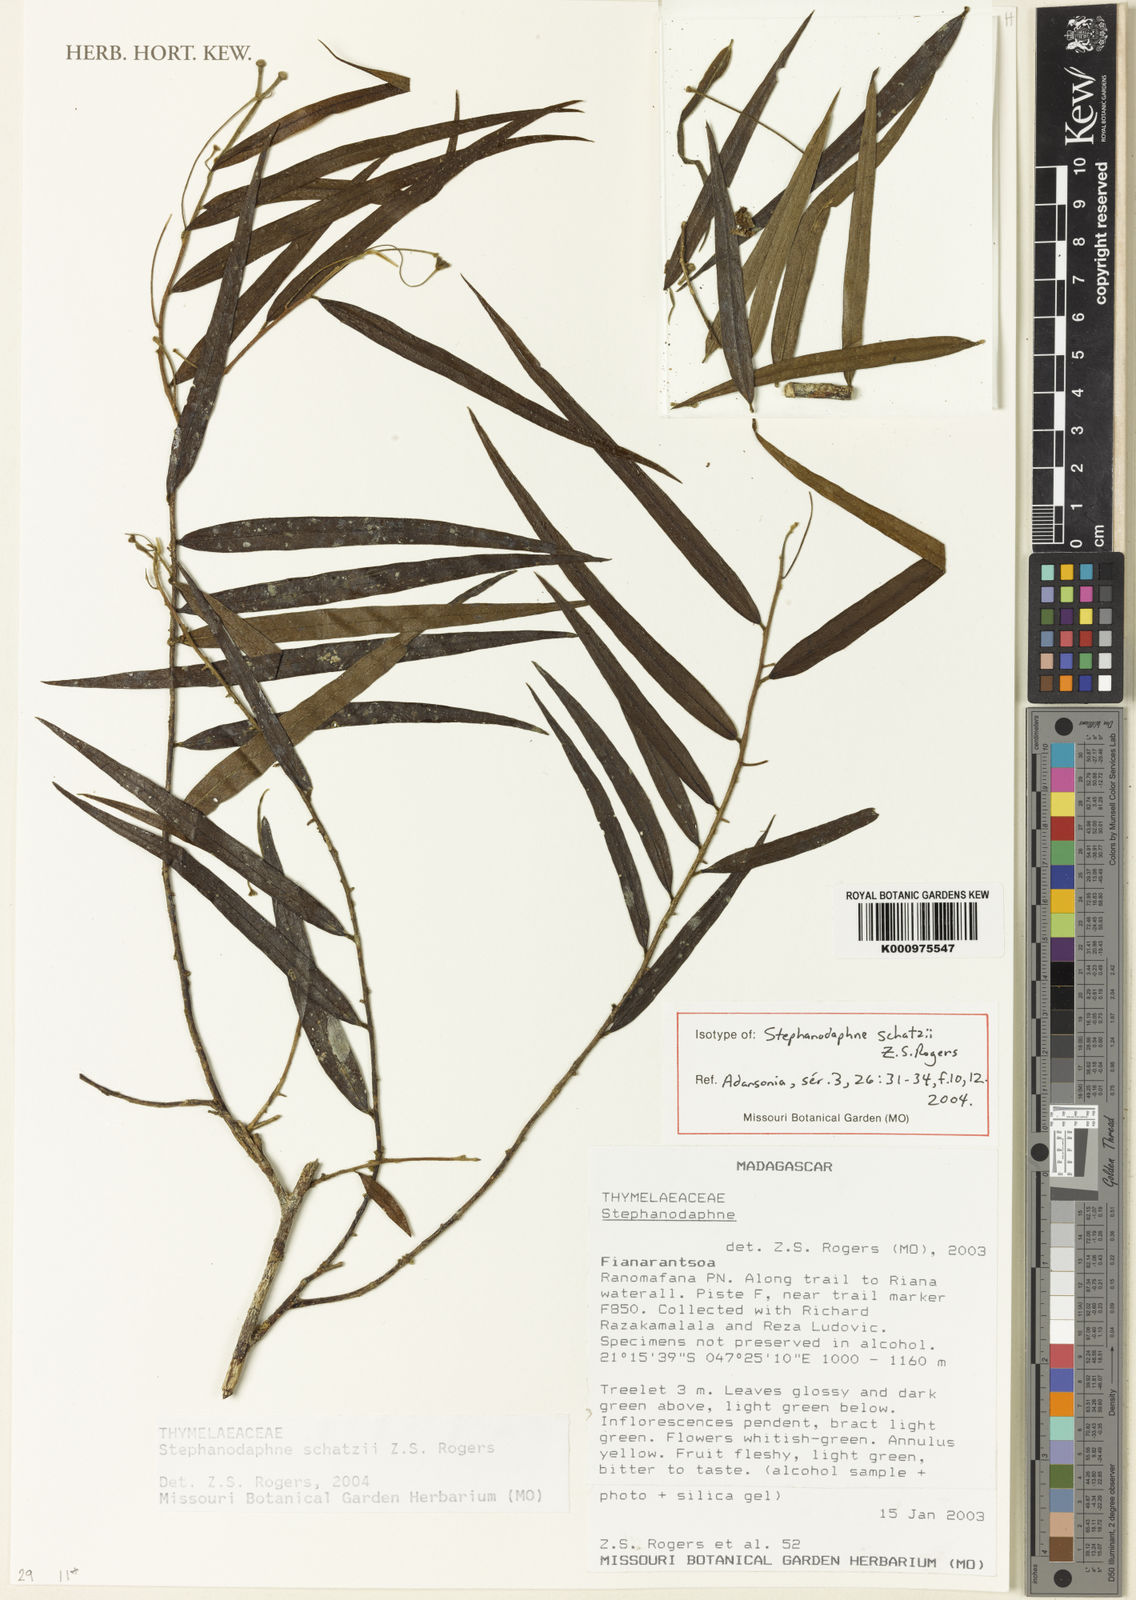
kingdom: Plantae
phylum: Tracheophyta
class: Magnoliopsida
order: Malvales
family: Thymelaeaceae
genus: Stephanodaphne
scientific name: Stephanodaphne schatzii
